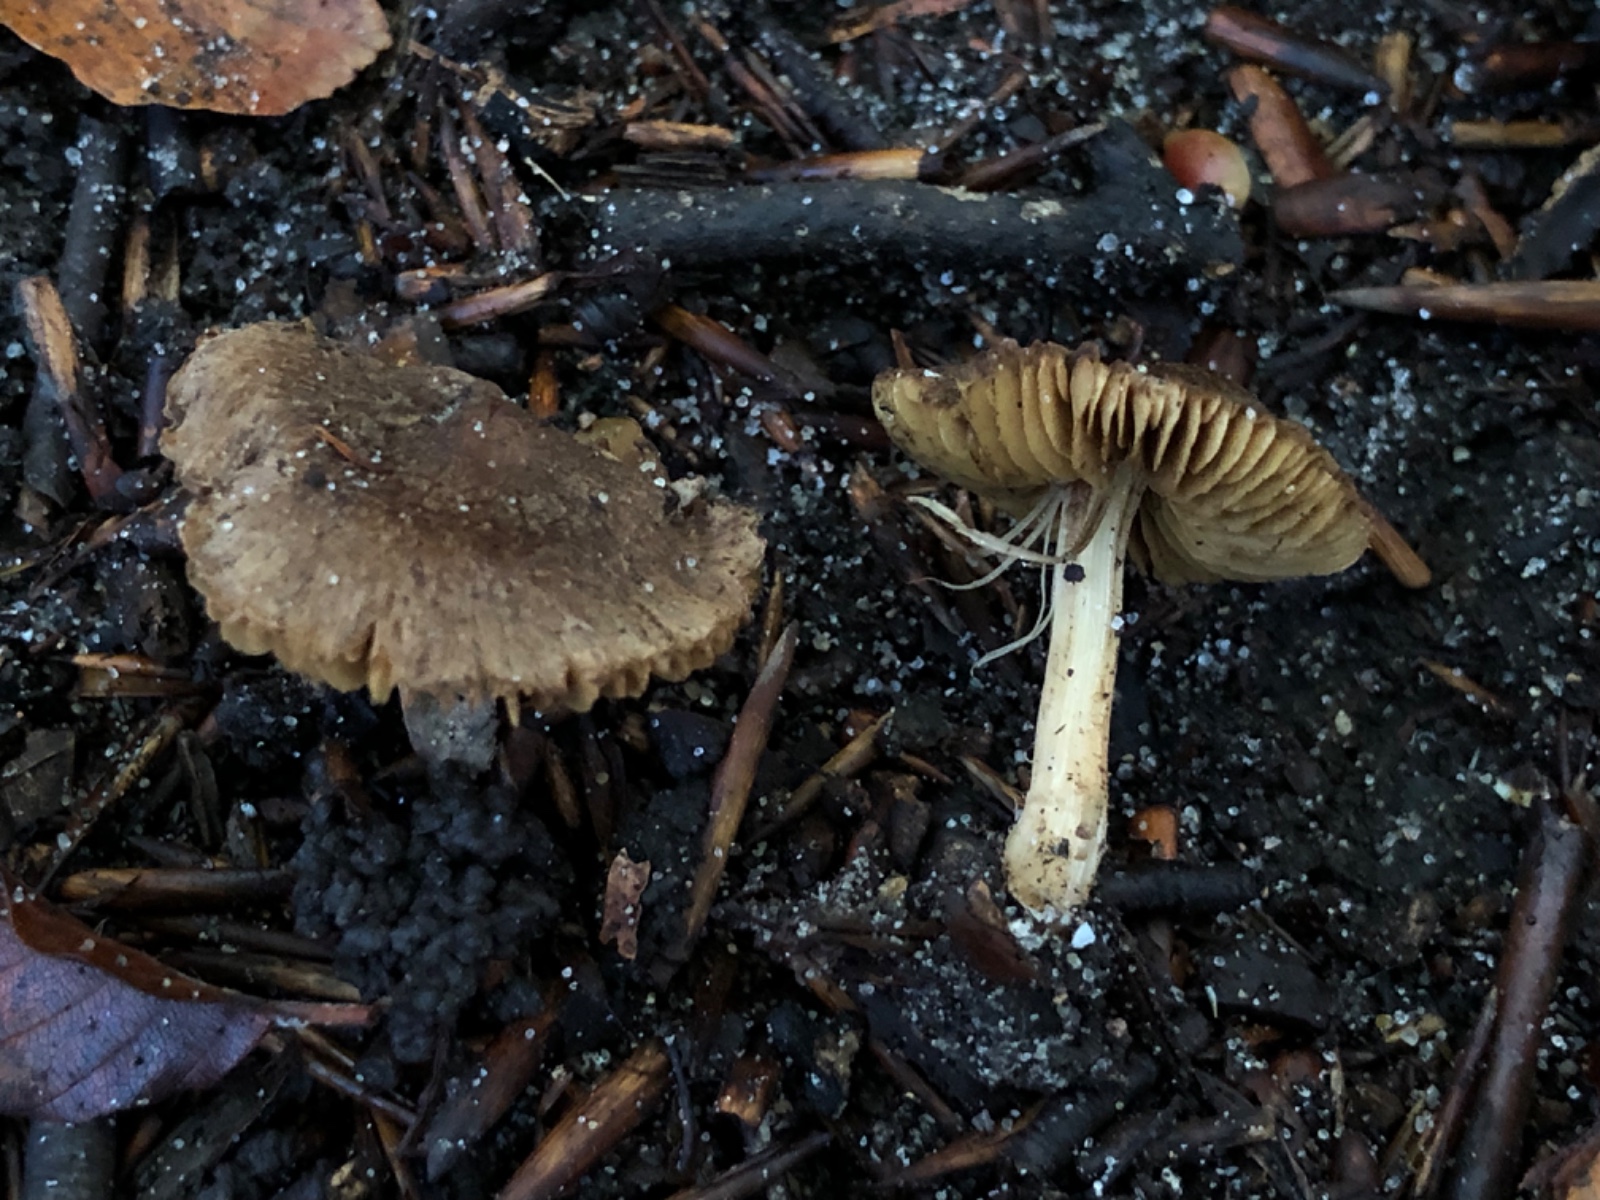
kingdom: Fungi
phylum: Basidiomycota
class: Agaricomycetes
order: Agaricales
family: Inocybaceae
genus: Inocybe
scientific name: Inocybe
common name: trævlhat
